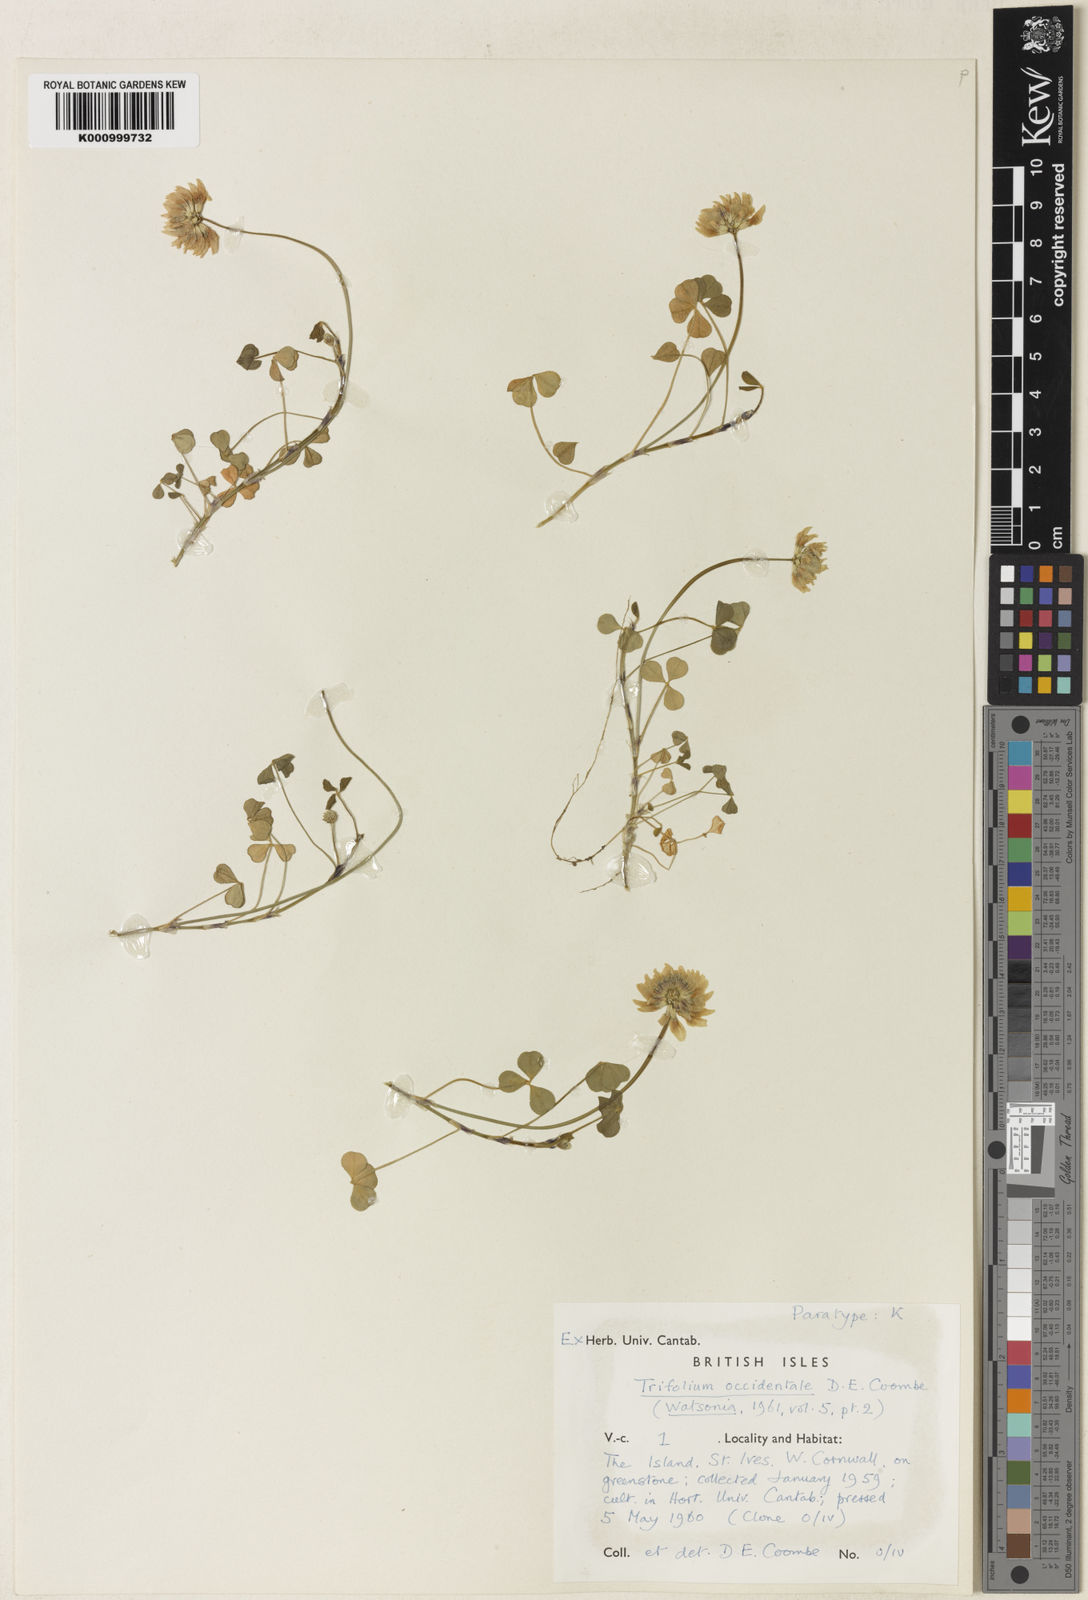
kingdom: Plantae
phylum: Tracheophyta
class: Magnoliopsida
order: Fabales
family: Fabaceae
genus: Trifolium
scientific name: Trifolium occidentale
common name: Western clover
